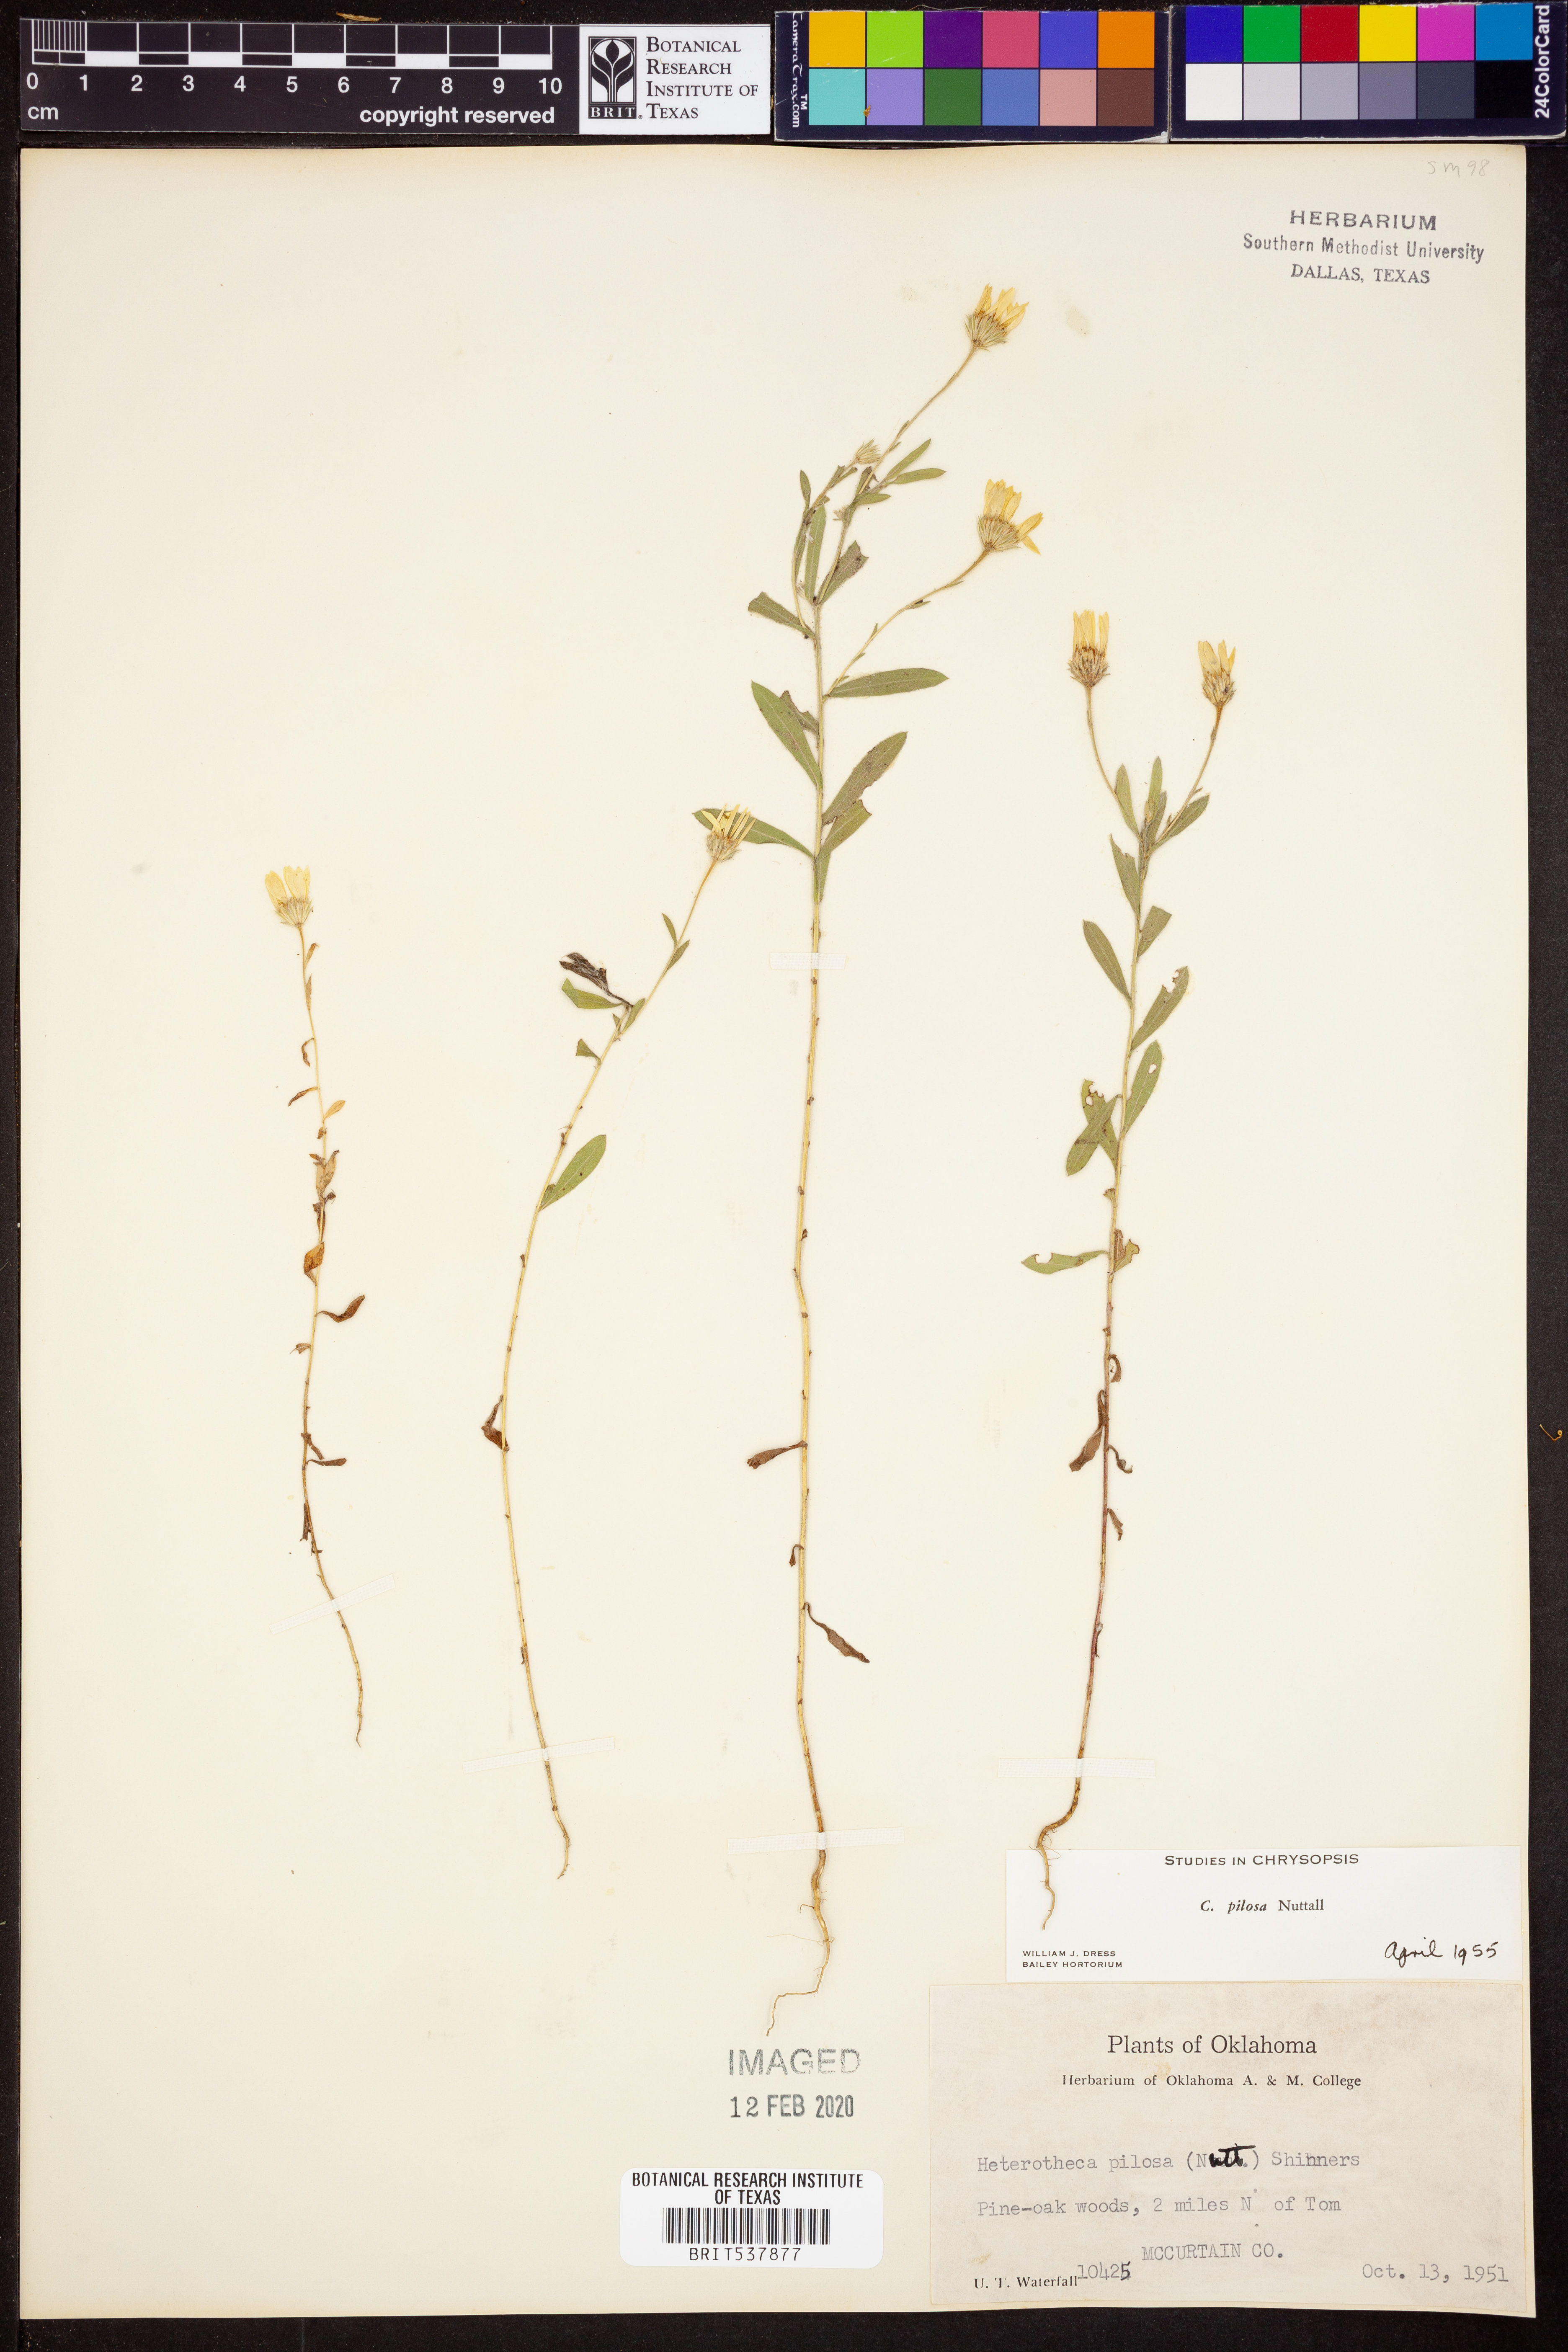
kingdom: Plantae
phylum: Tracheophyta
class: Magnoliopsida
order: Asterales
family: Asteraceae
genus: Bradburia
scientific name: Bradburia pilosa
